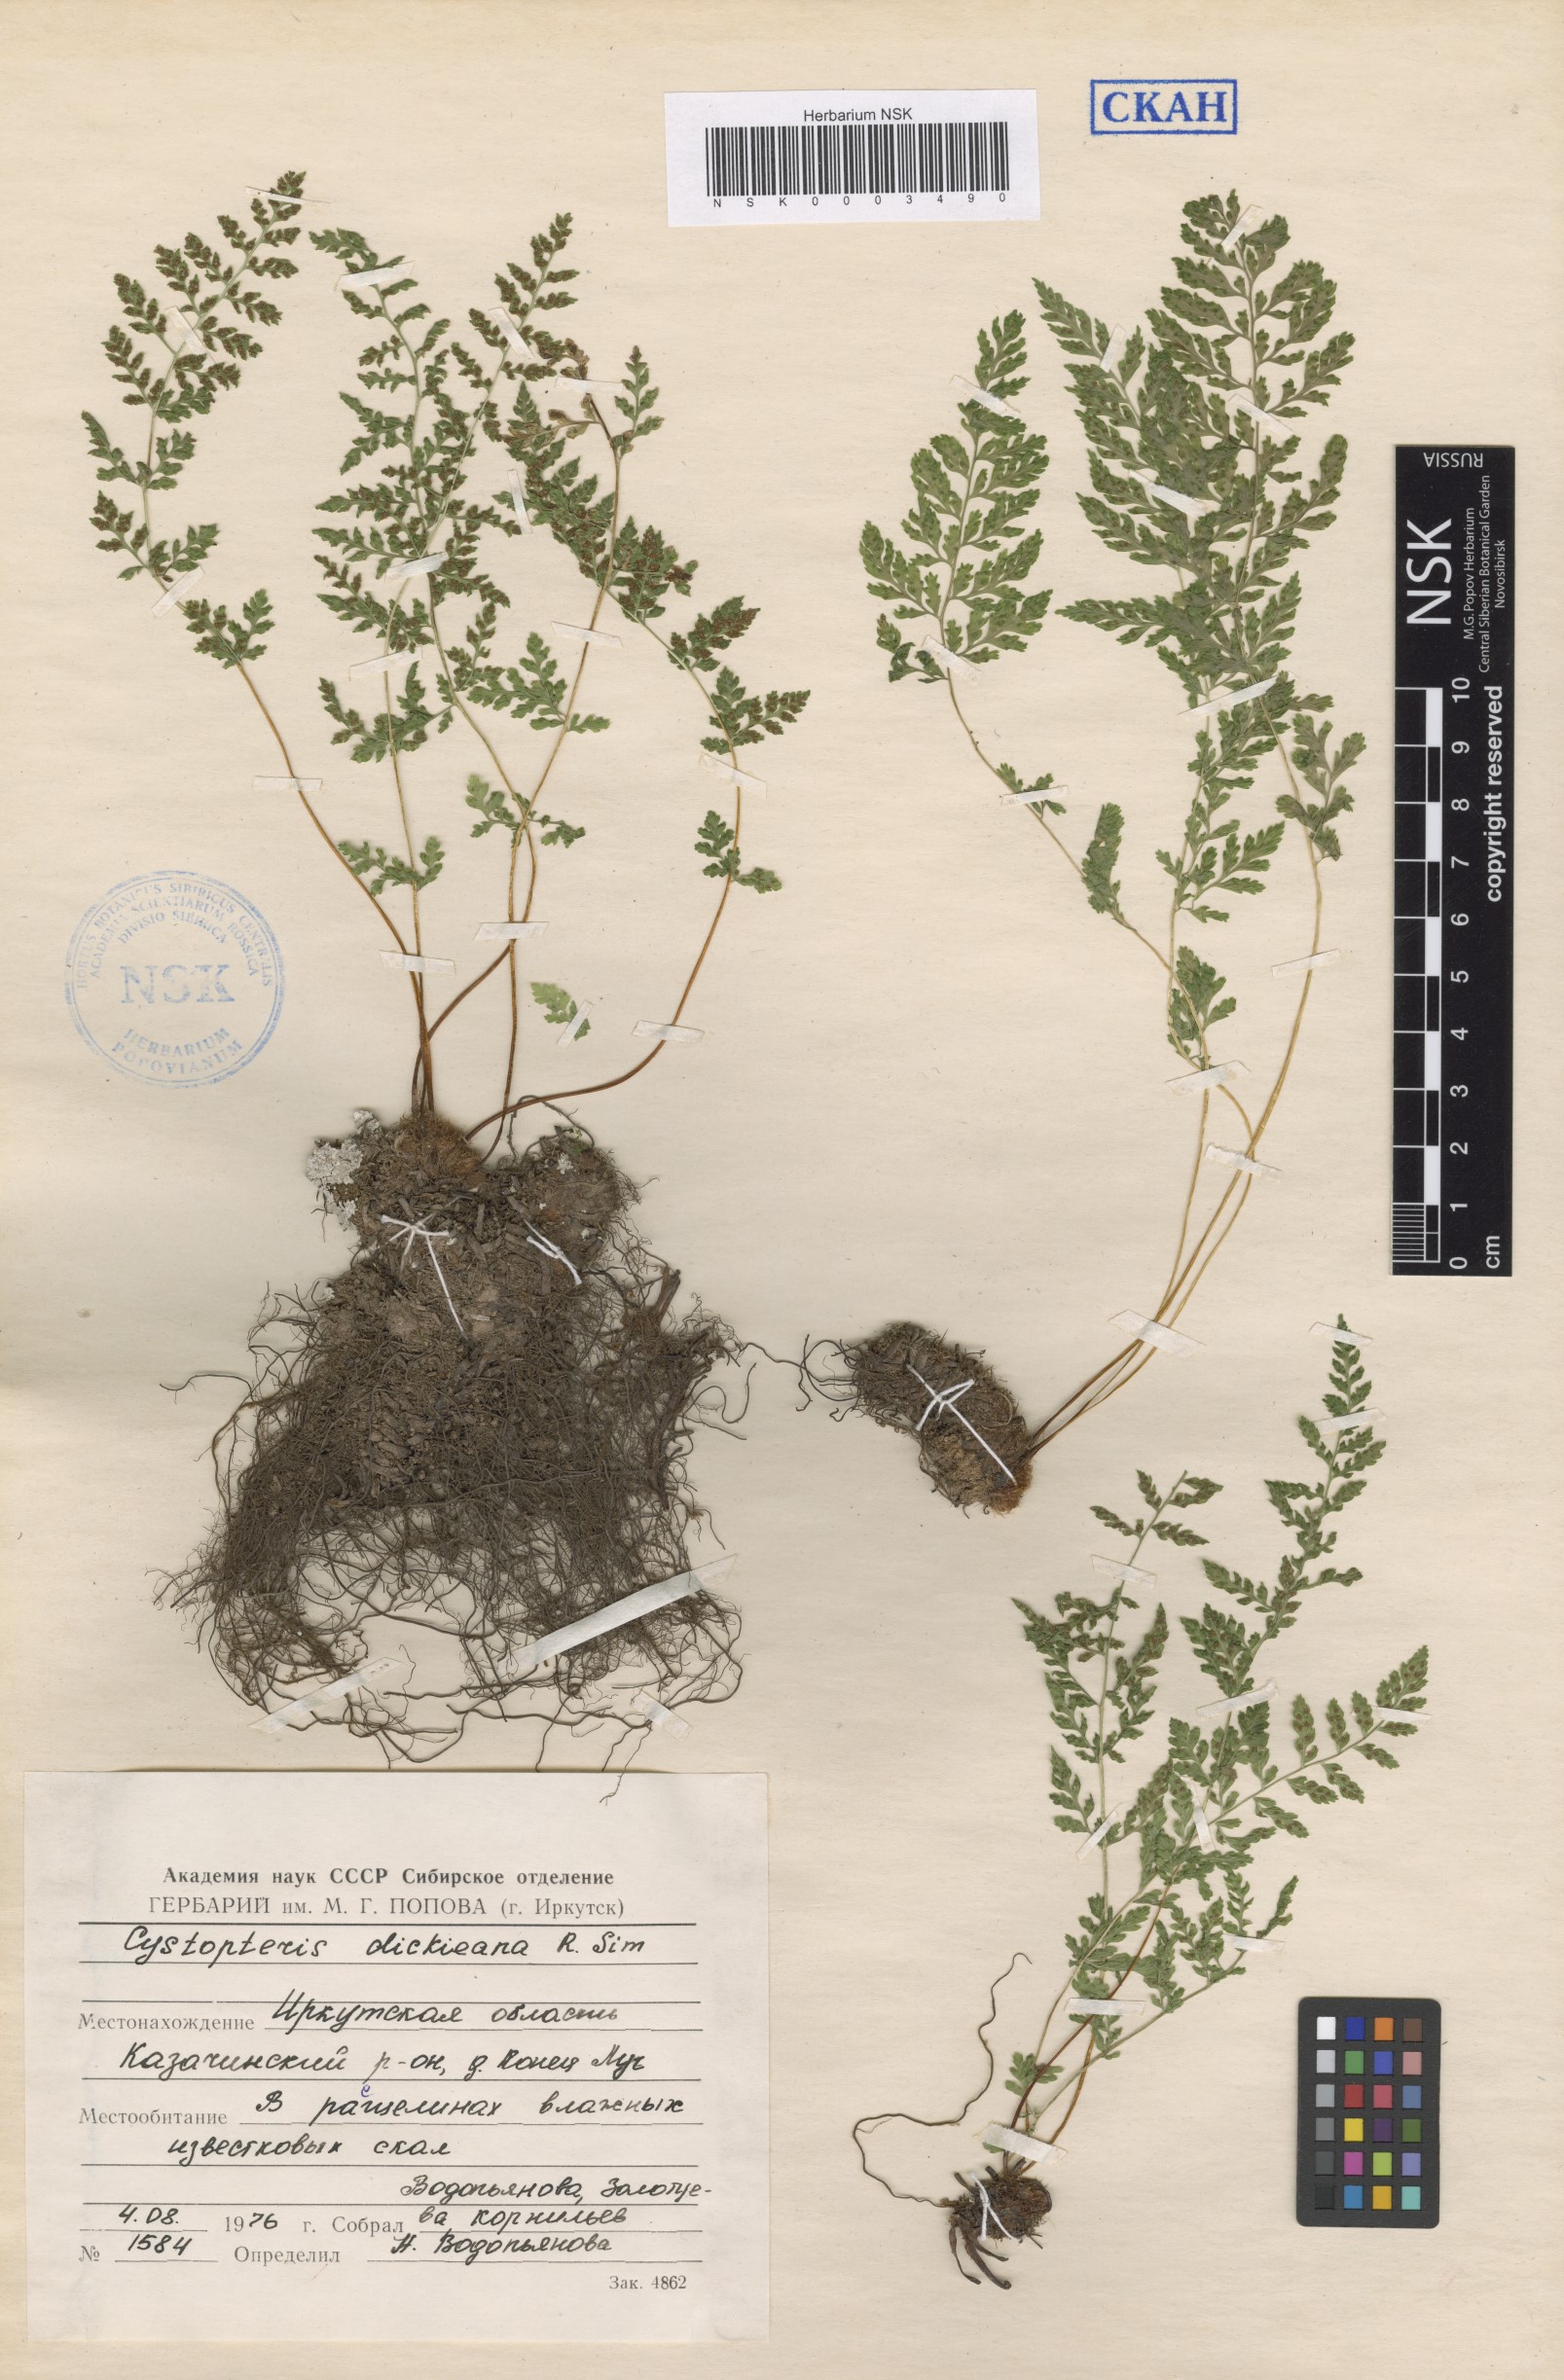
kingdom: Plantae
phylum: Tracheophyta
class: Polypodiopsida
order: Polypodiales
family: Cystopteridaceae
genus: Cystopteris
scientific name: Cystopteris dickieana
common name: Dickie's bladder-fern
